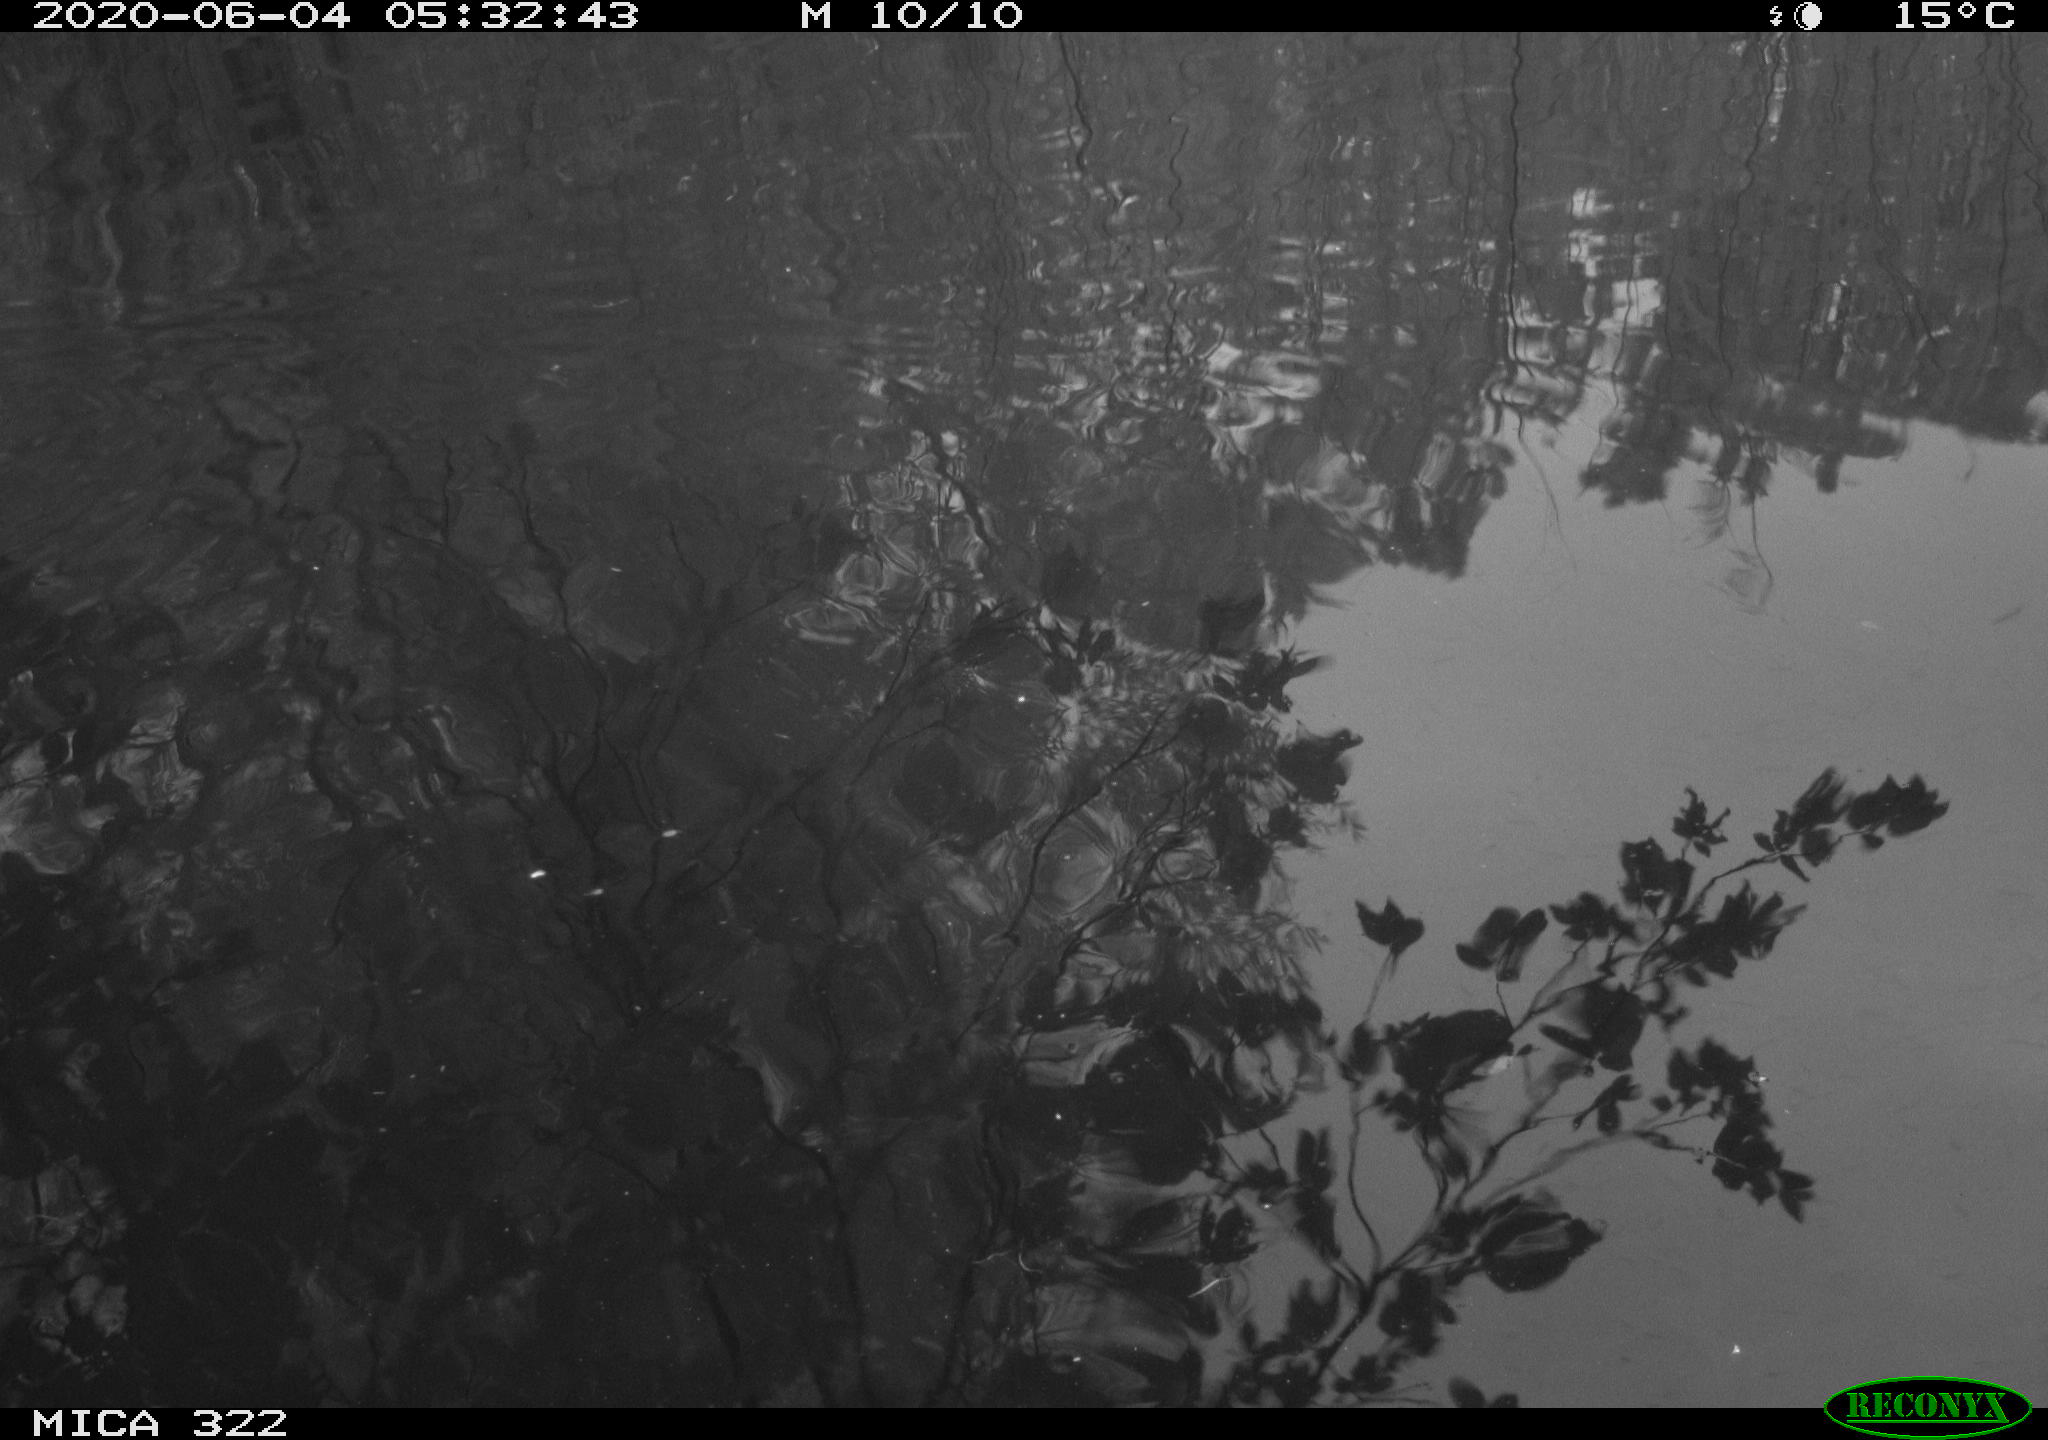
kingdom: Animalia
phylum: Chordata
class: Aves
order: Anseriformes
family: Anatidae
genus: Anas
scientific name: Anas platyrhynchos
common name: Mallard
